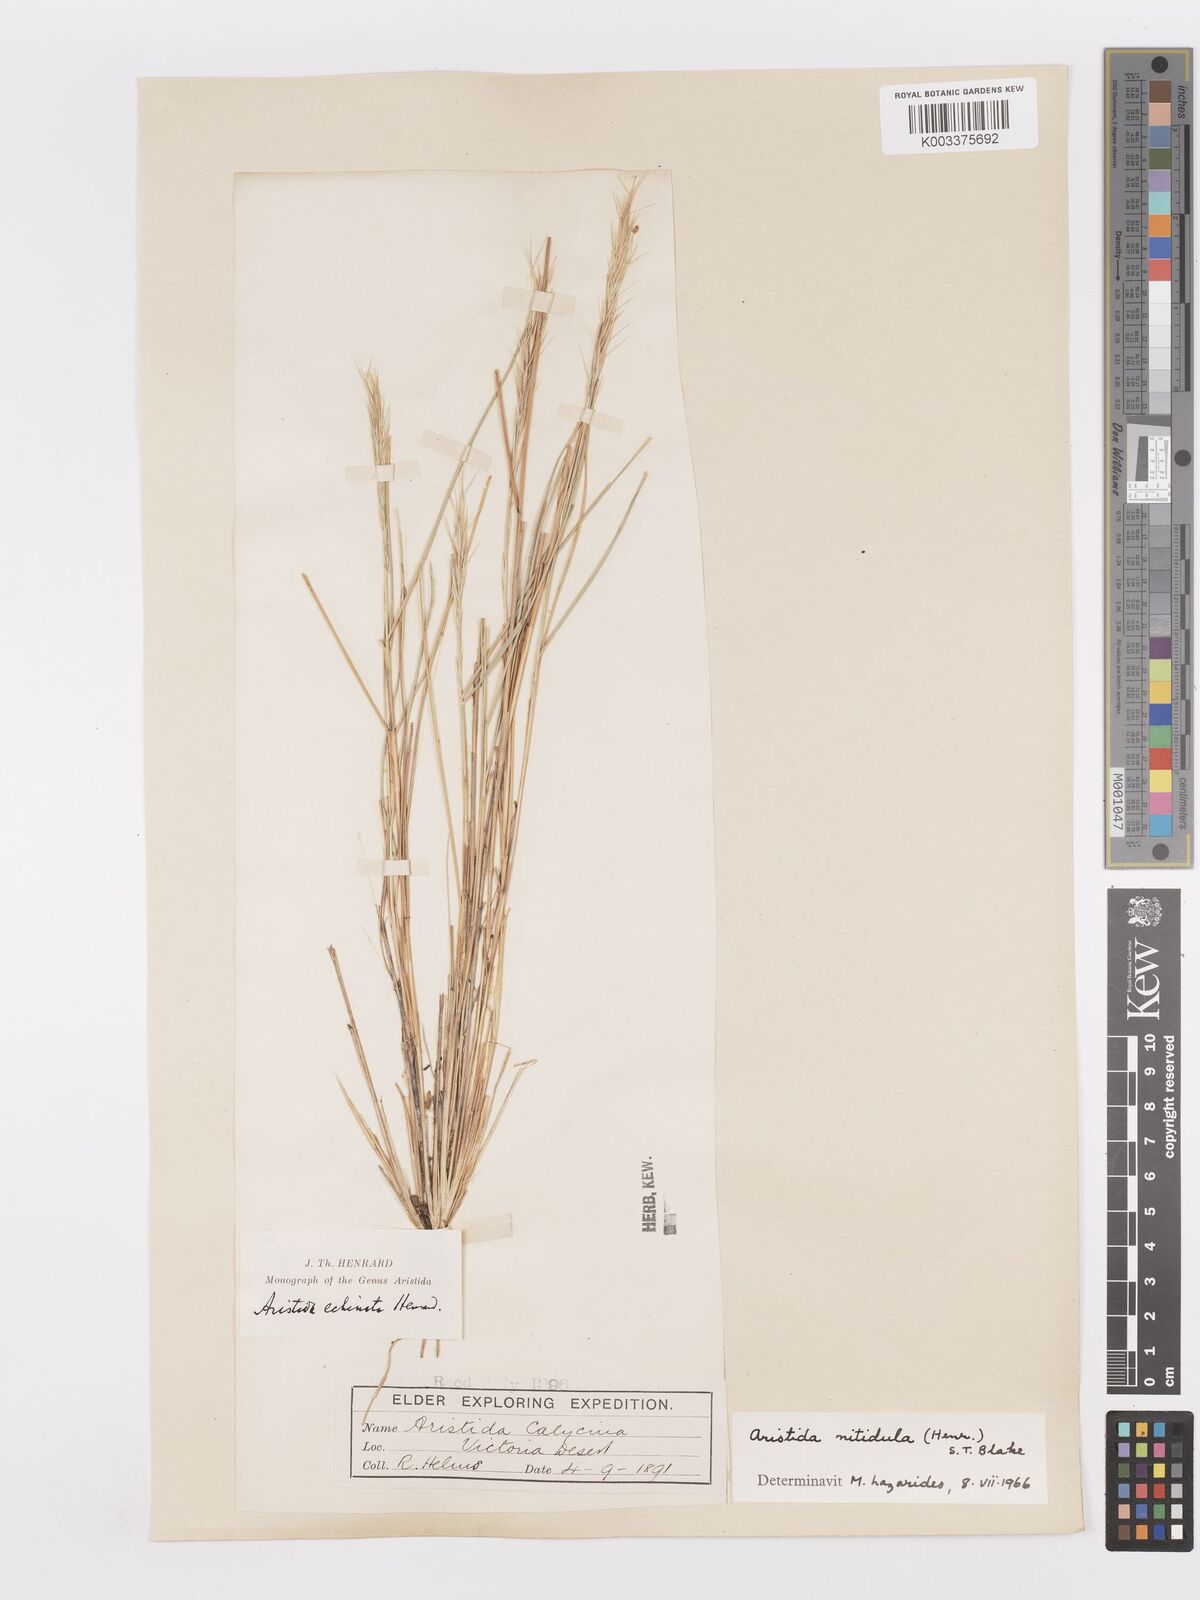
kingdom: Plantae
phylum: Tracheophyta
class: Liliopsida
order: Poales
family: Poaceae
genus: Aristida
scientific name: Aristida nitidula
